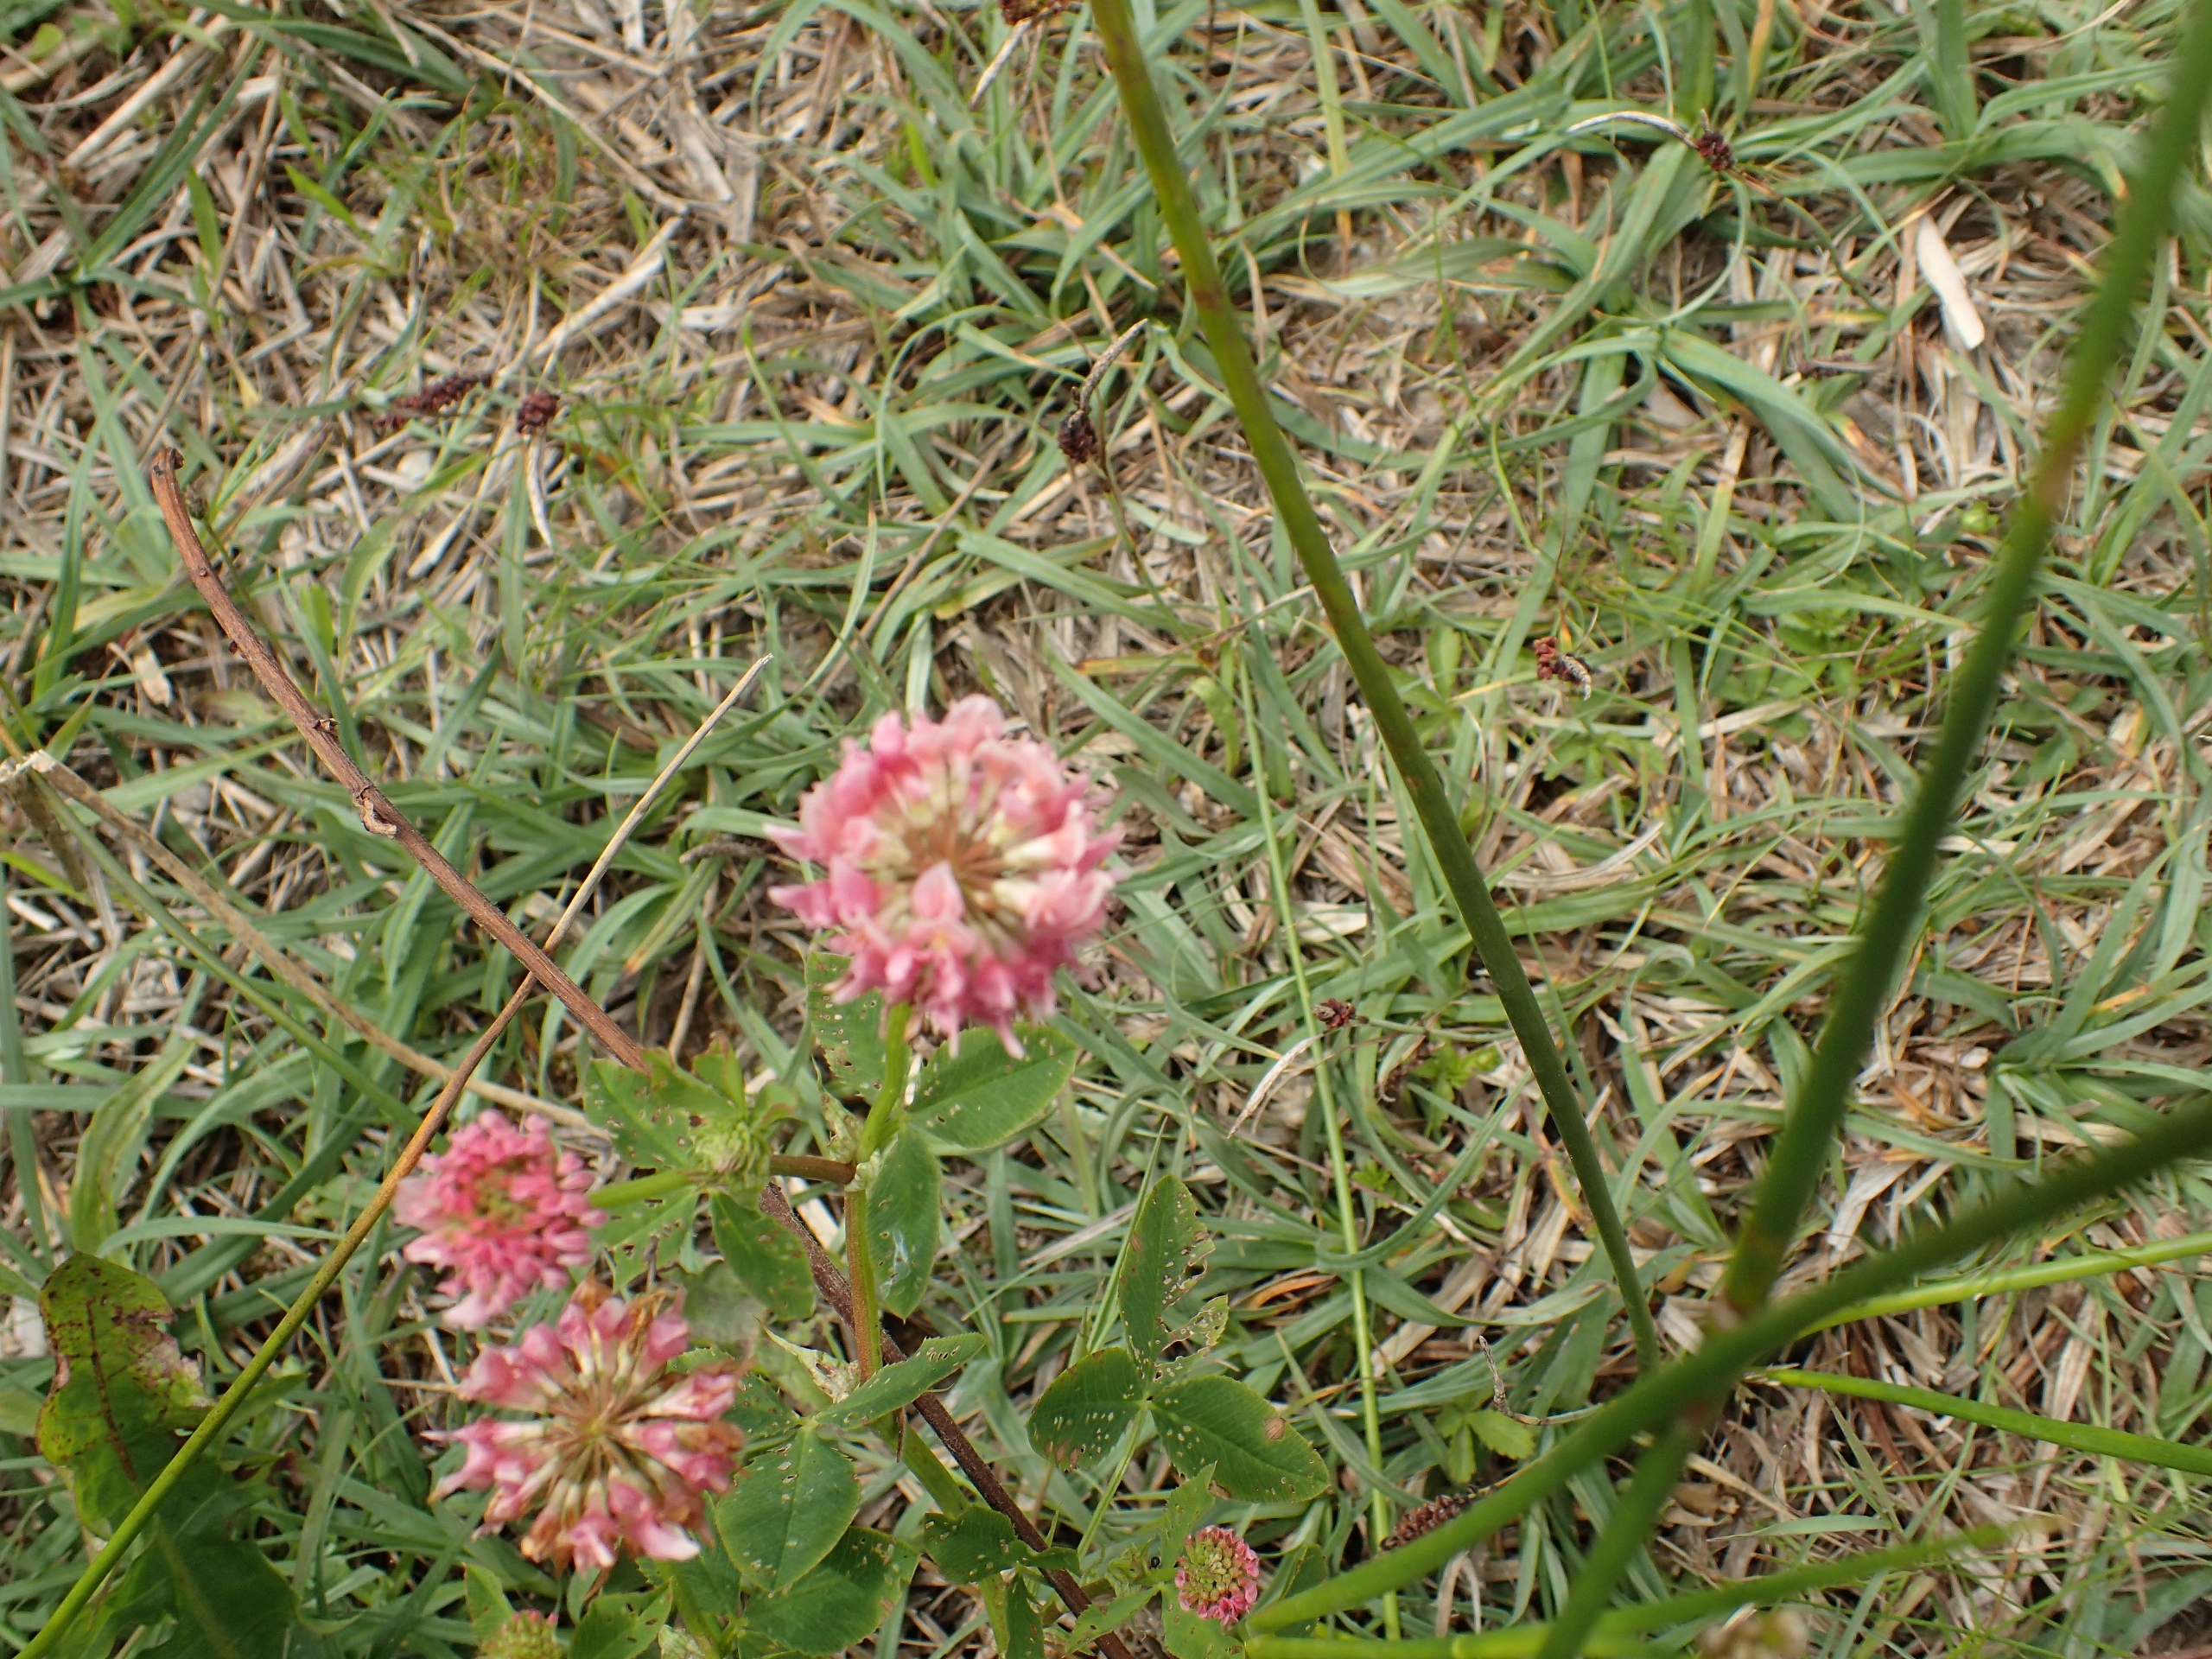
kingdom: Plantae
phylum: Tracheophyta
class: Magnoliopsida
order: Fabales
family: Fabaceae
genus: Trifolium
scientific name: Trifolium hybridum
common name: Alsike-kløver
